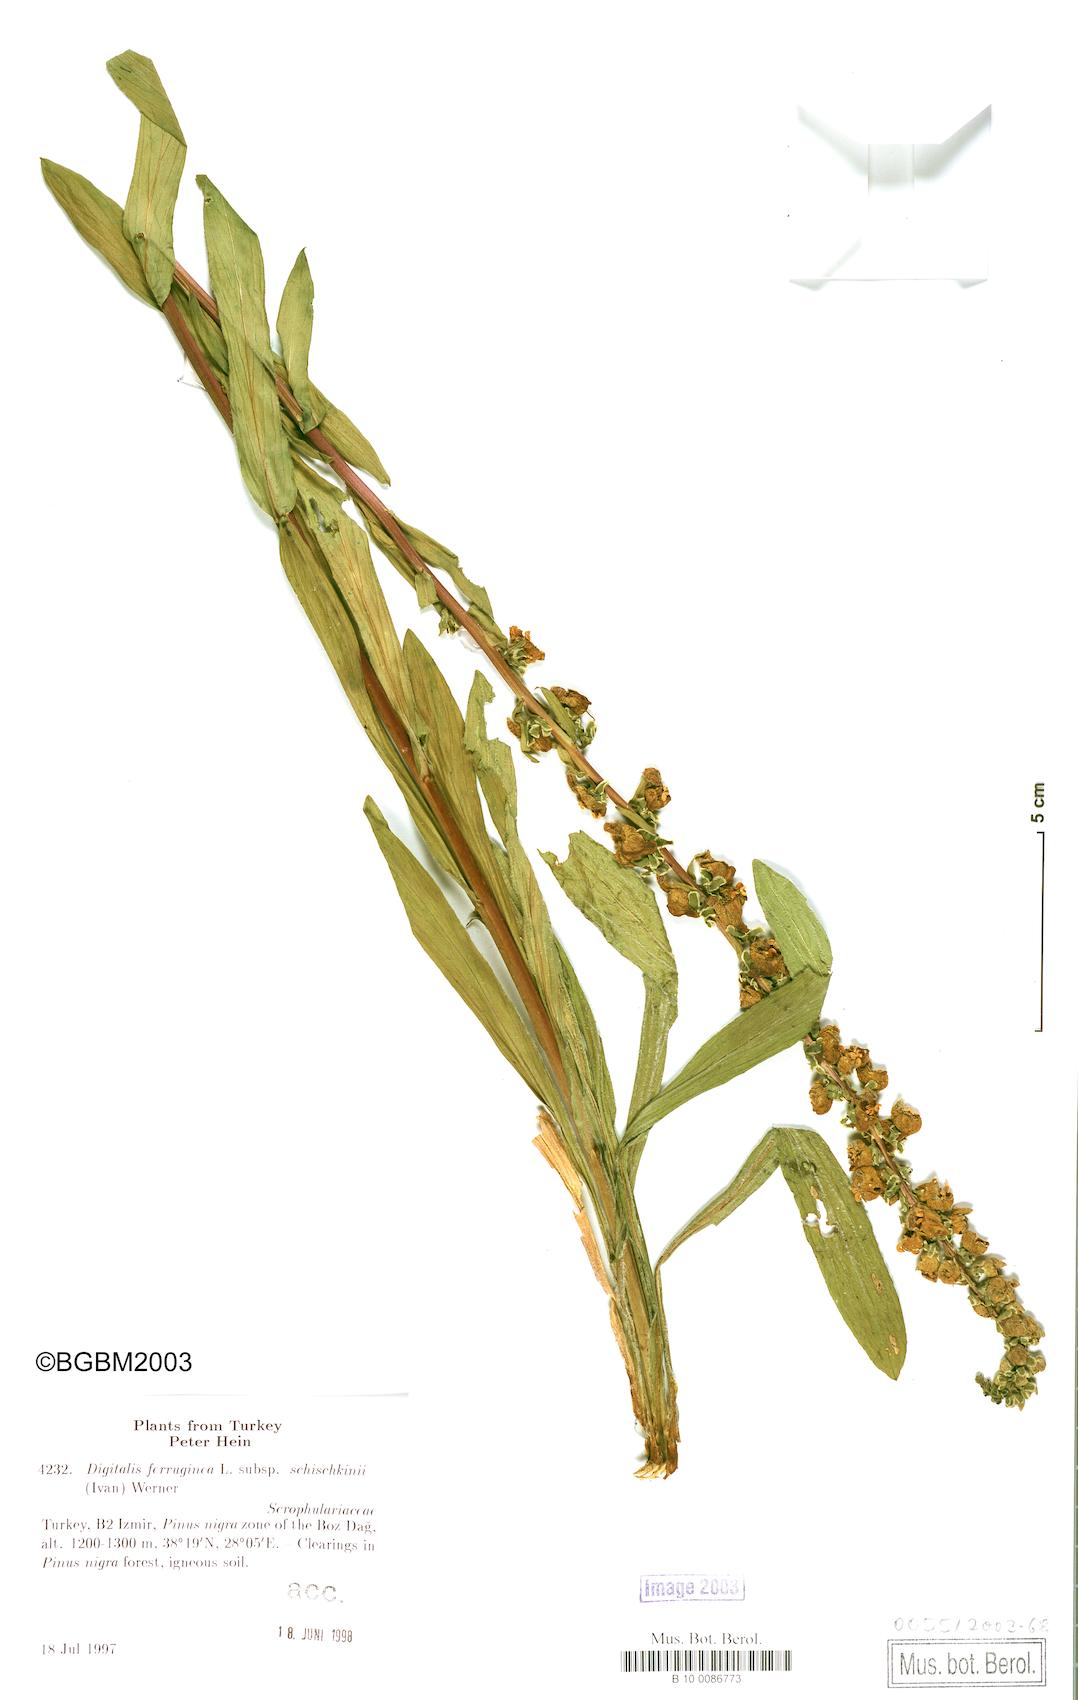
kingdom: Plantae
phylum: Tracheophyta
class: Magnoliopsida
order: Lamiales
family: Plantaginaceae
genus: Digitalis
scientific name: Digitalis ferruginea
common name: Rusty foxglove
